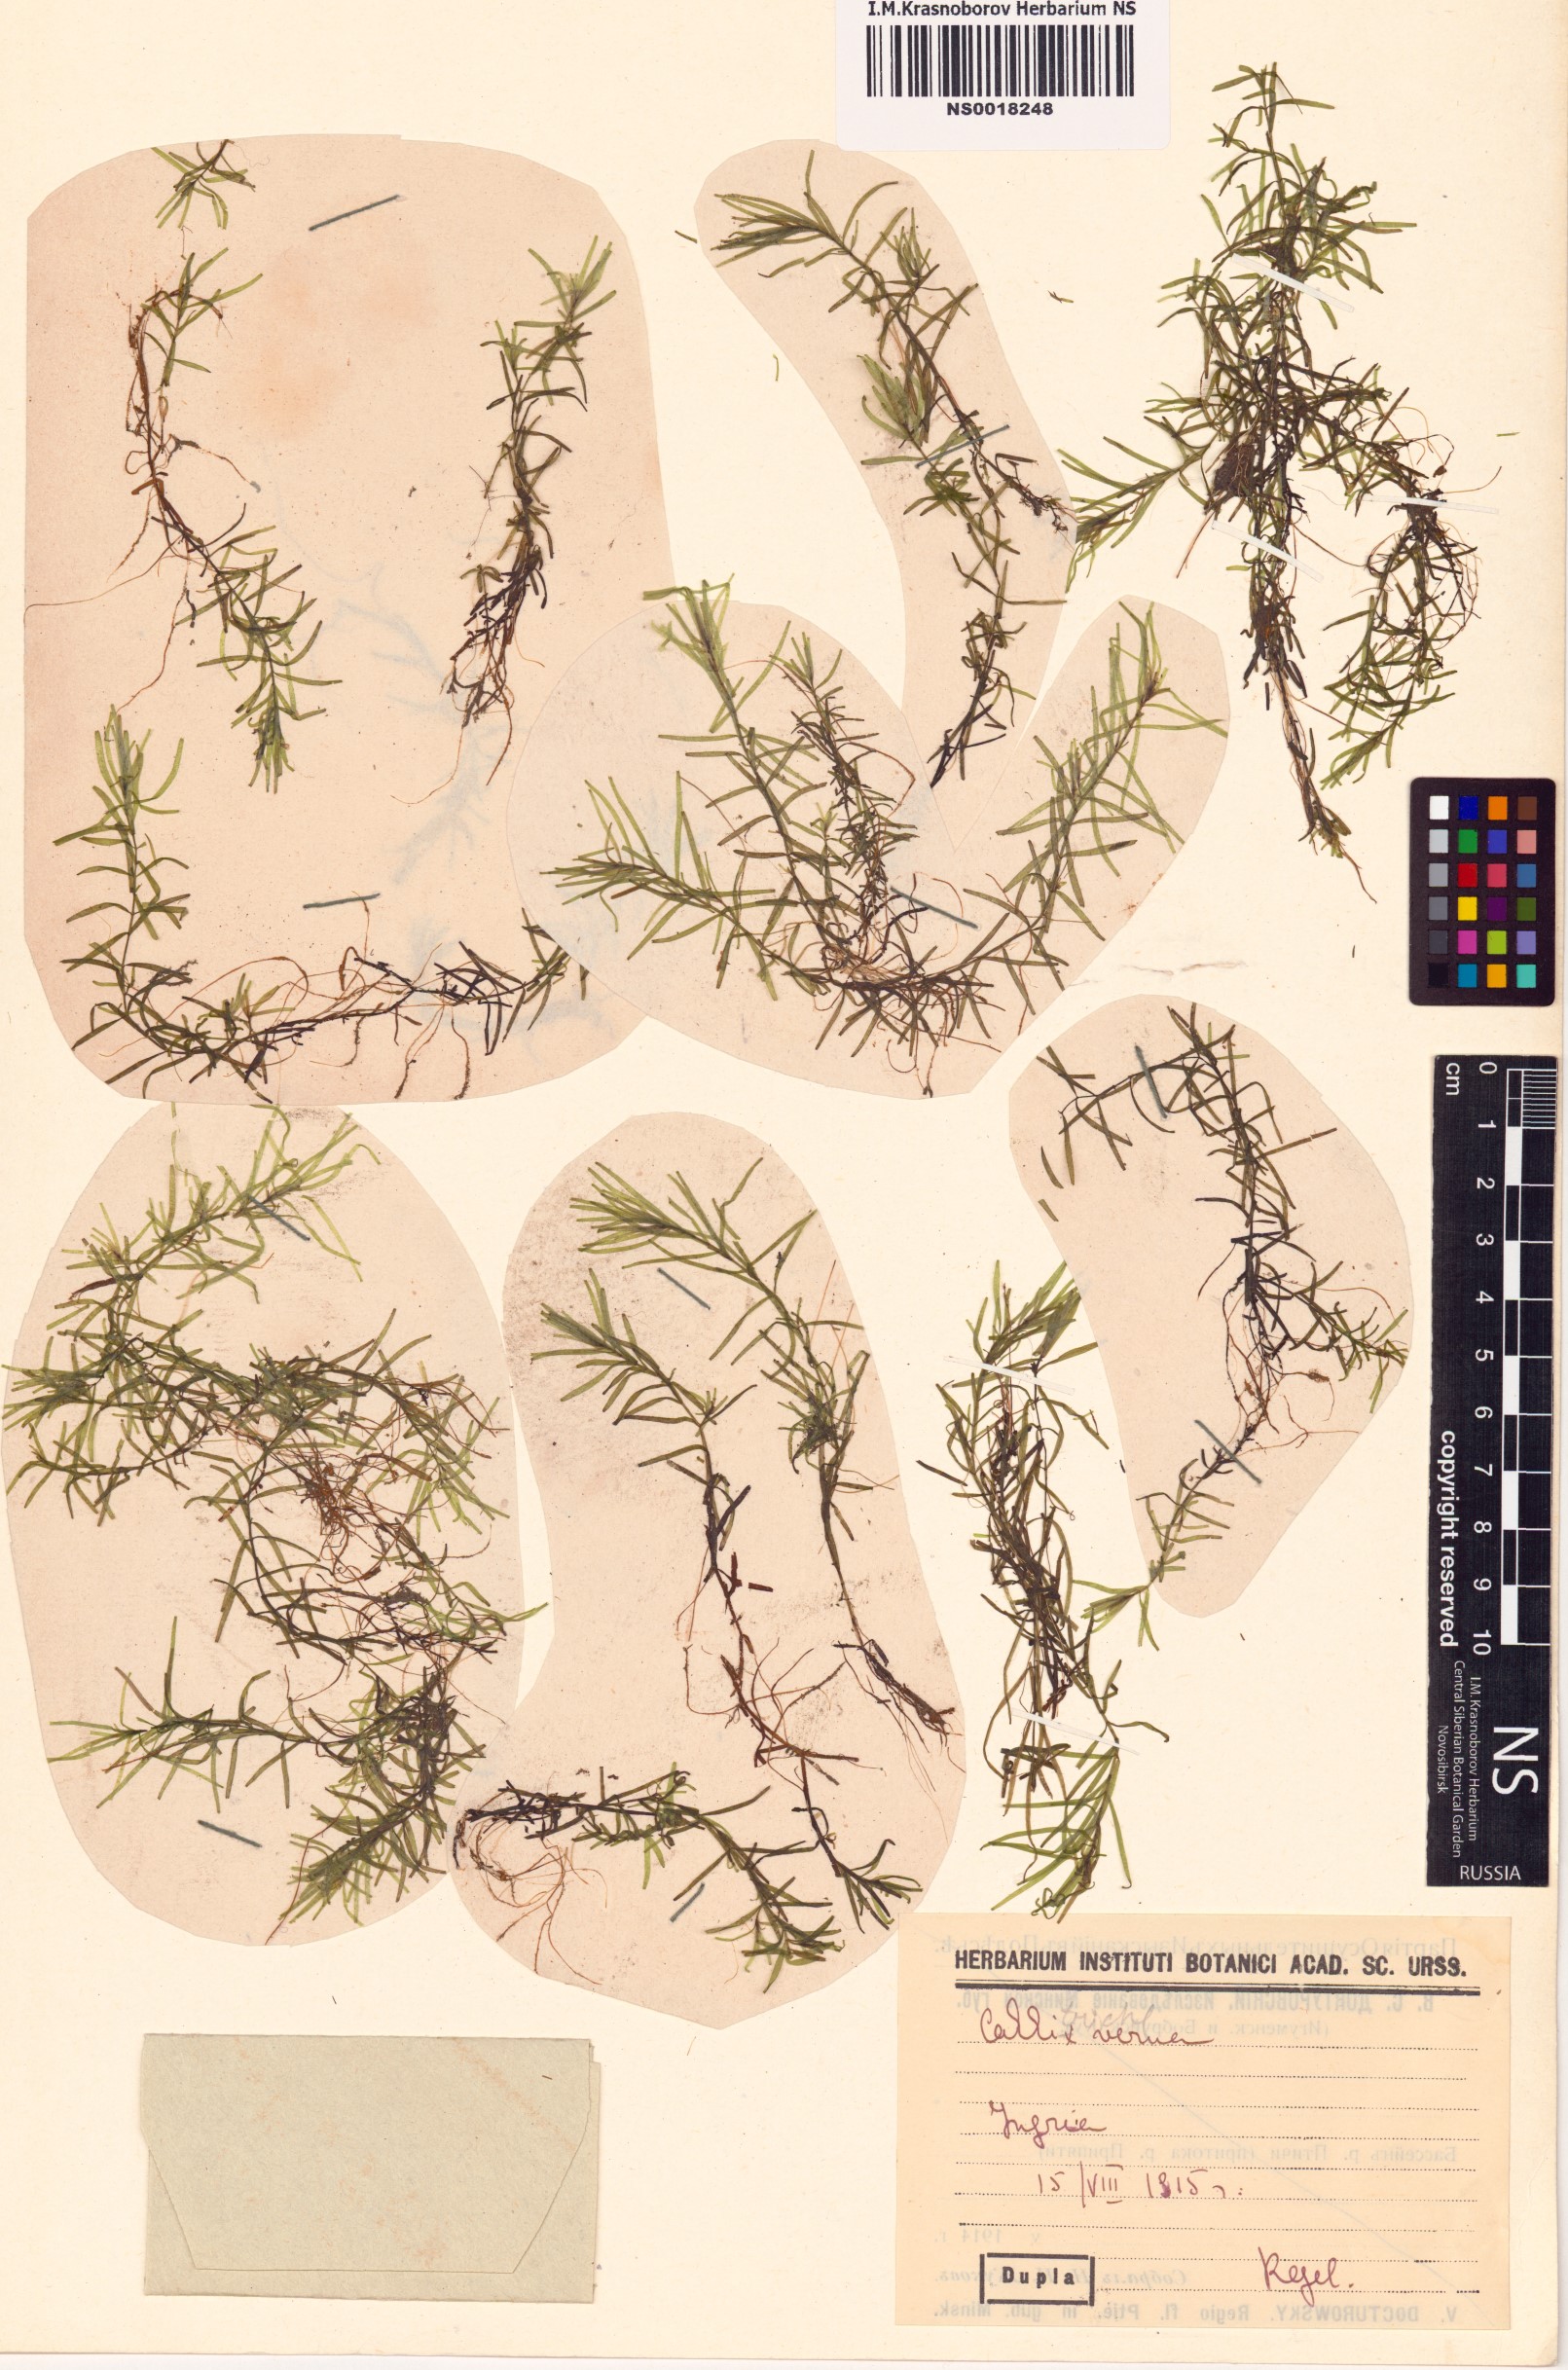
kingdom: Plantae
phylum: Tracheophyta
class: Magnoliopsida
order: Lamiales
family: Plantaginaceae
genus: Callitriche
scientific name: Callitriche palustris
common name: Spring water-starwort
